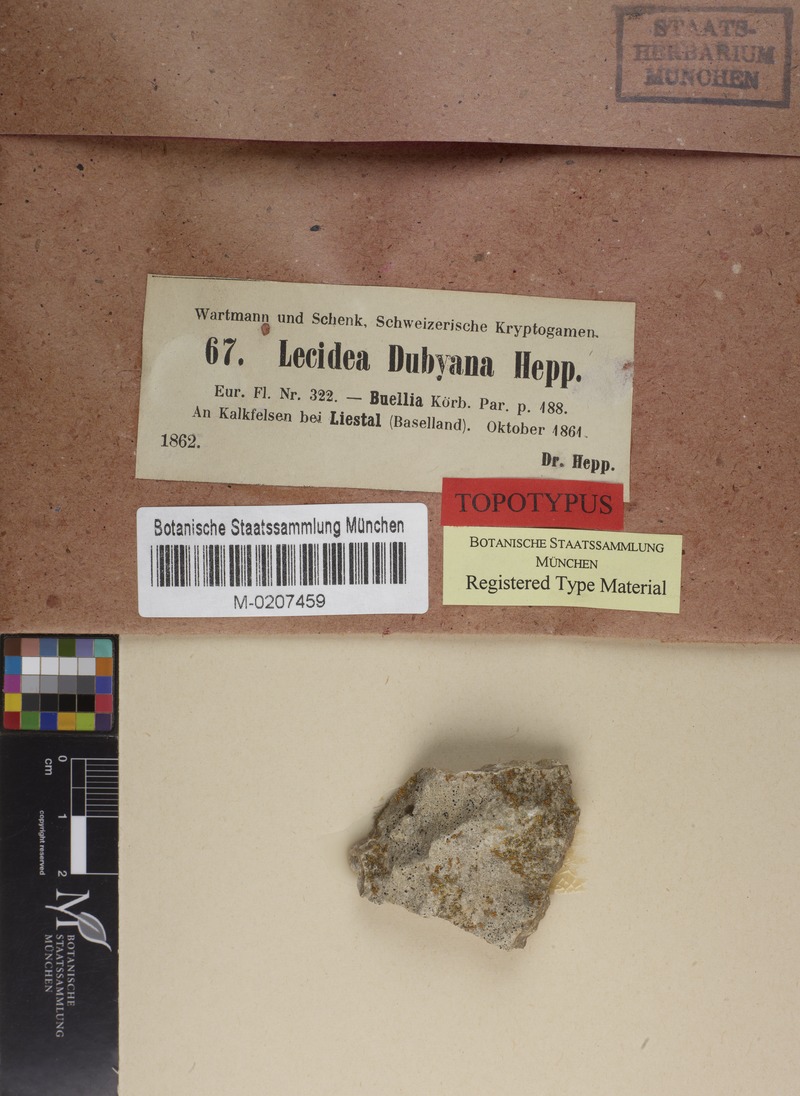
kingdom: Fungi
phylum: Ascomycota
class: Lecanoromycetes
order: Caliciales
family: Physciaceae
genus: Rinodina
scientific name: Rinodina dubyana
